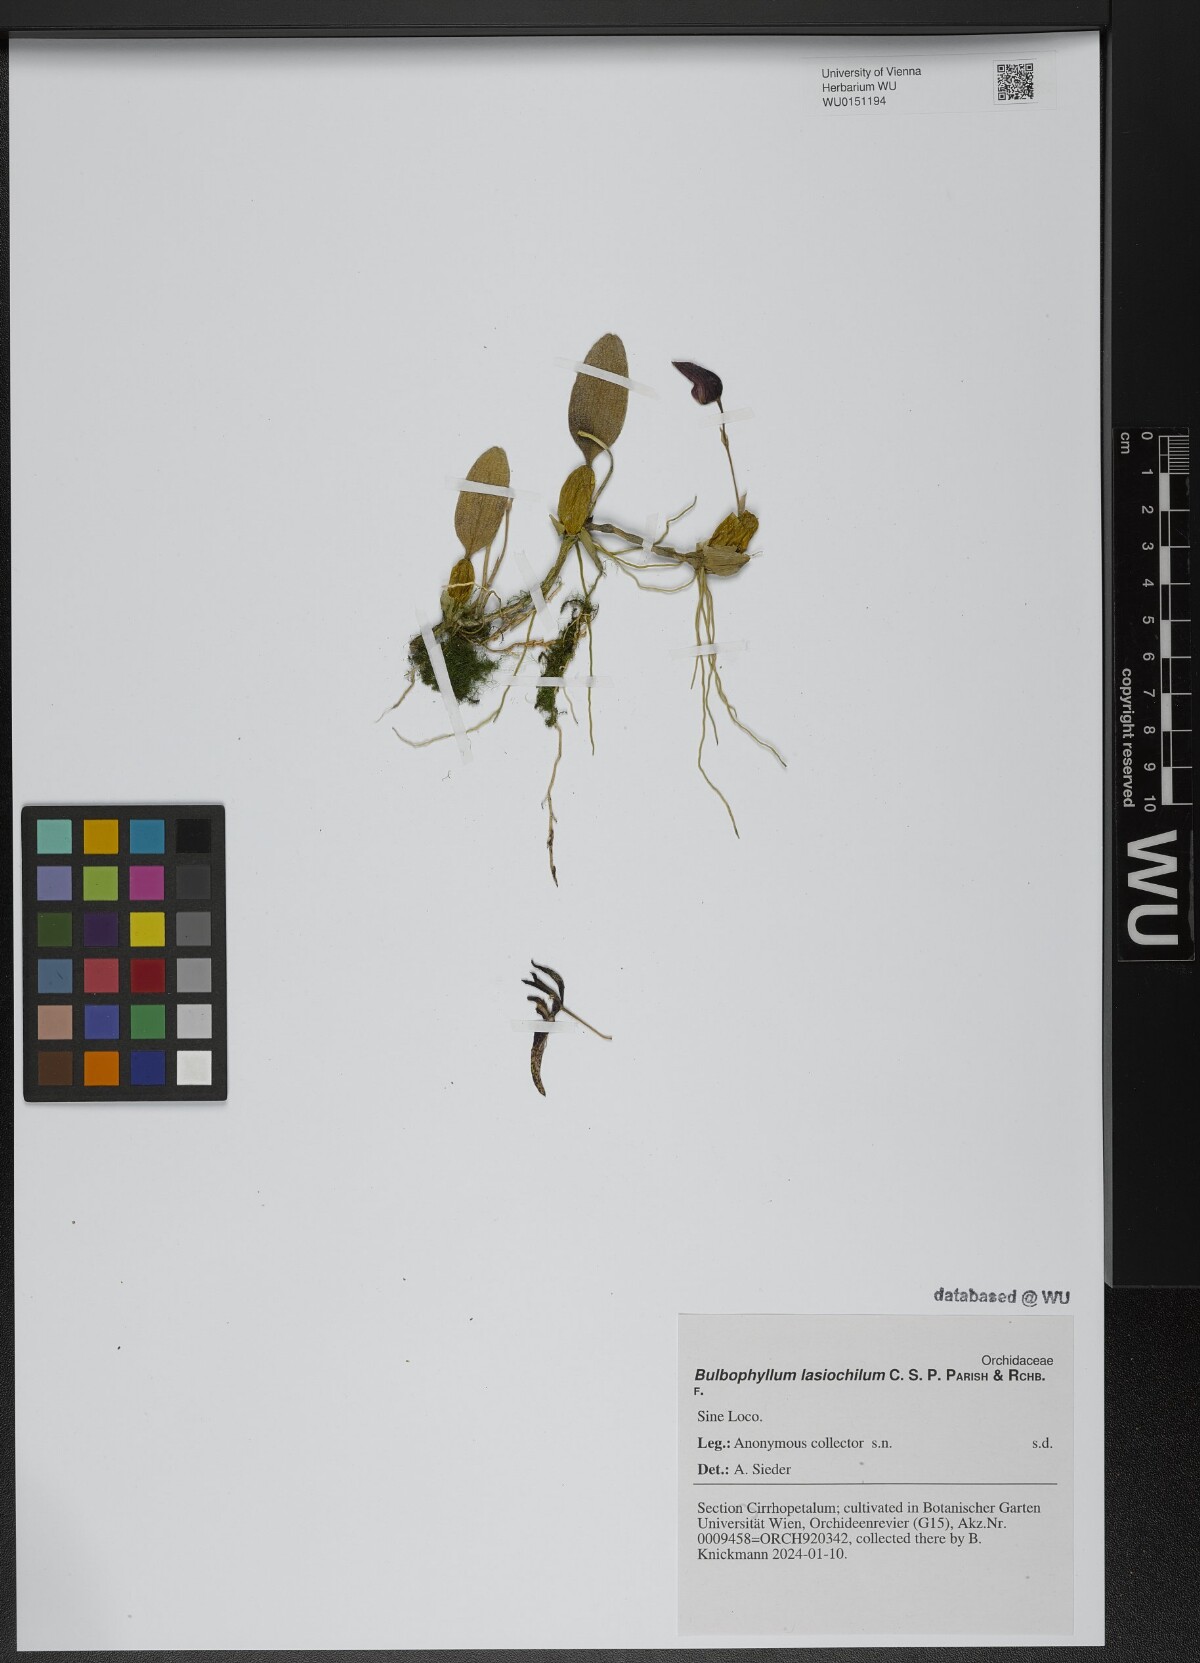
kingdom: Plantae
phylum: Tracheophyta
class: Liliopsida
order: Asparagales
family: Orchidaceae
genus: Bulbophyllum
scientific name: Bulbophyllum lasiochilum
